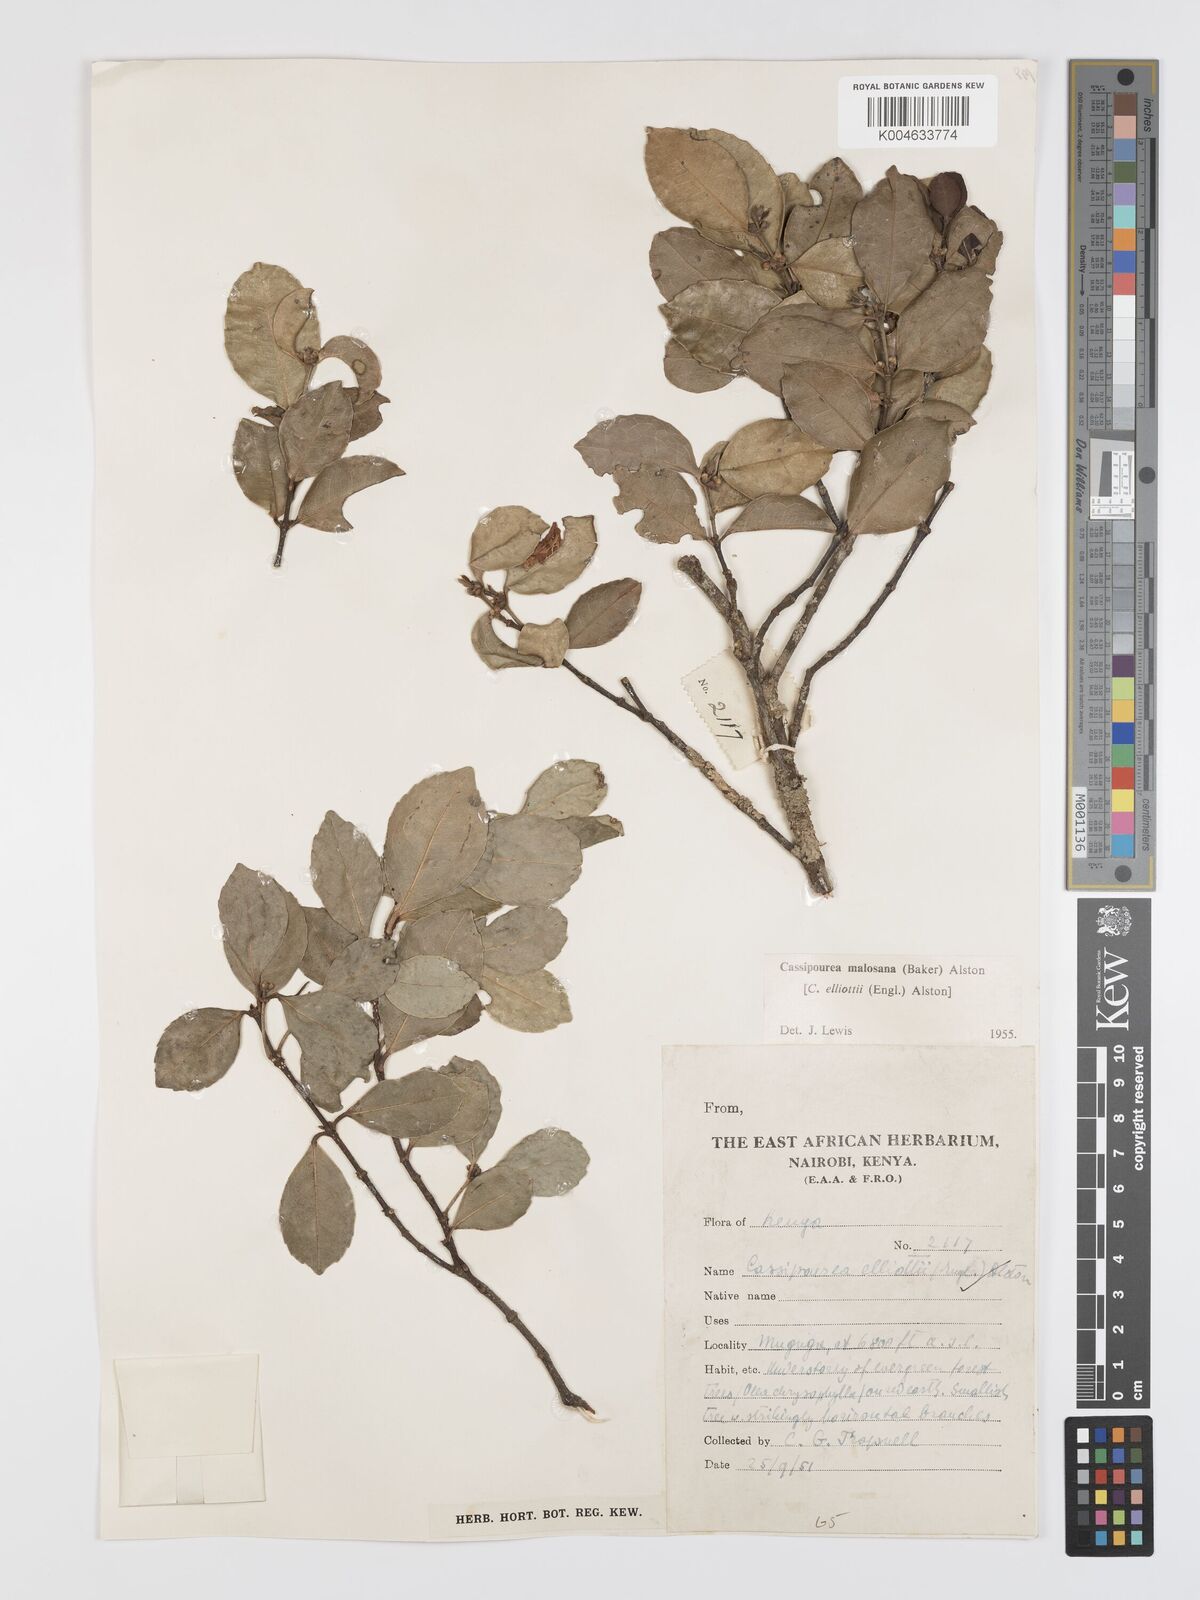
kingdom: Plantae
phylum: Tracheophyta
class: Magnoliopsida
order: Malpighiales
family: Rhizophoraceae
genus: Cassipourea
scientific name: Cassipourea malosana
